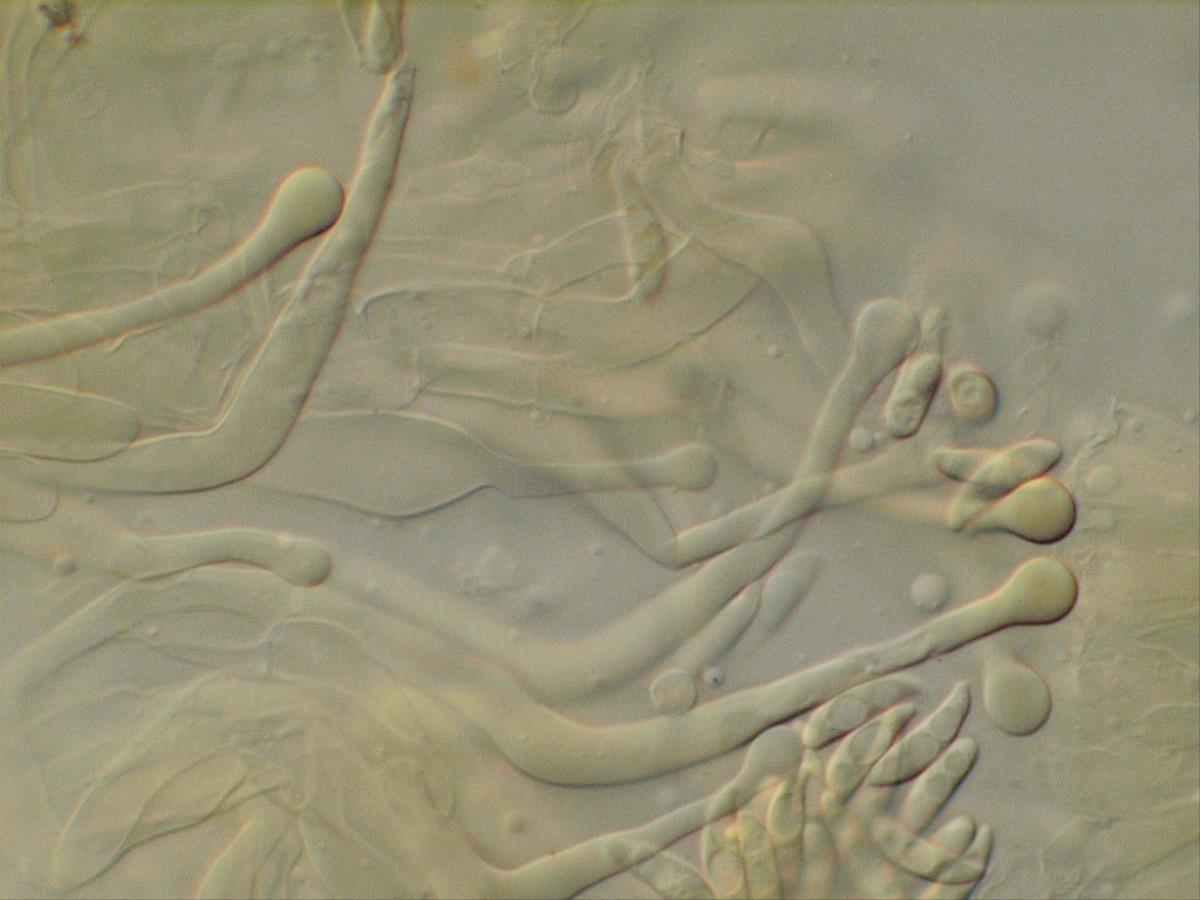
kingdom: Fungi
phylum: Basidiomycota
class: Agaricomycetes
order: Agaricales
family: Physalacriaceae
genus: Gloiocephala
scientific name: Gloiocephala
